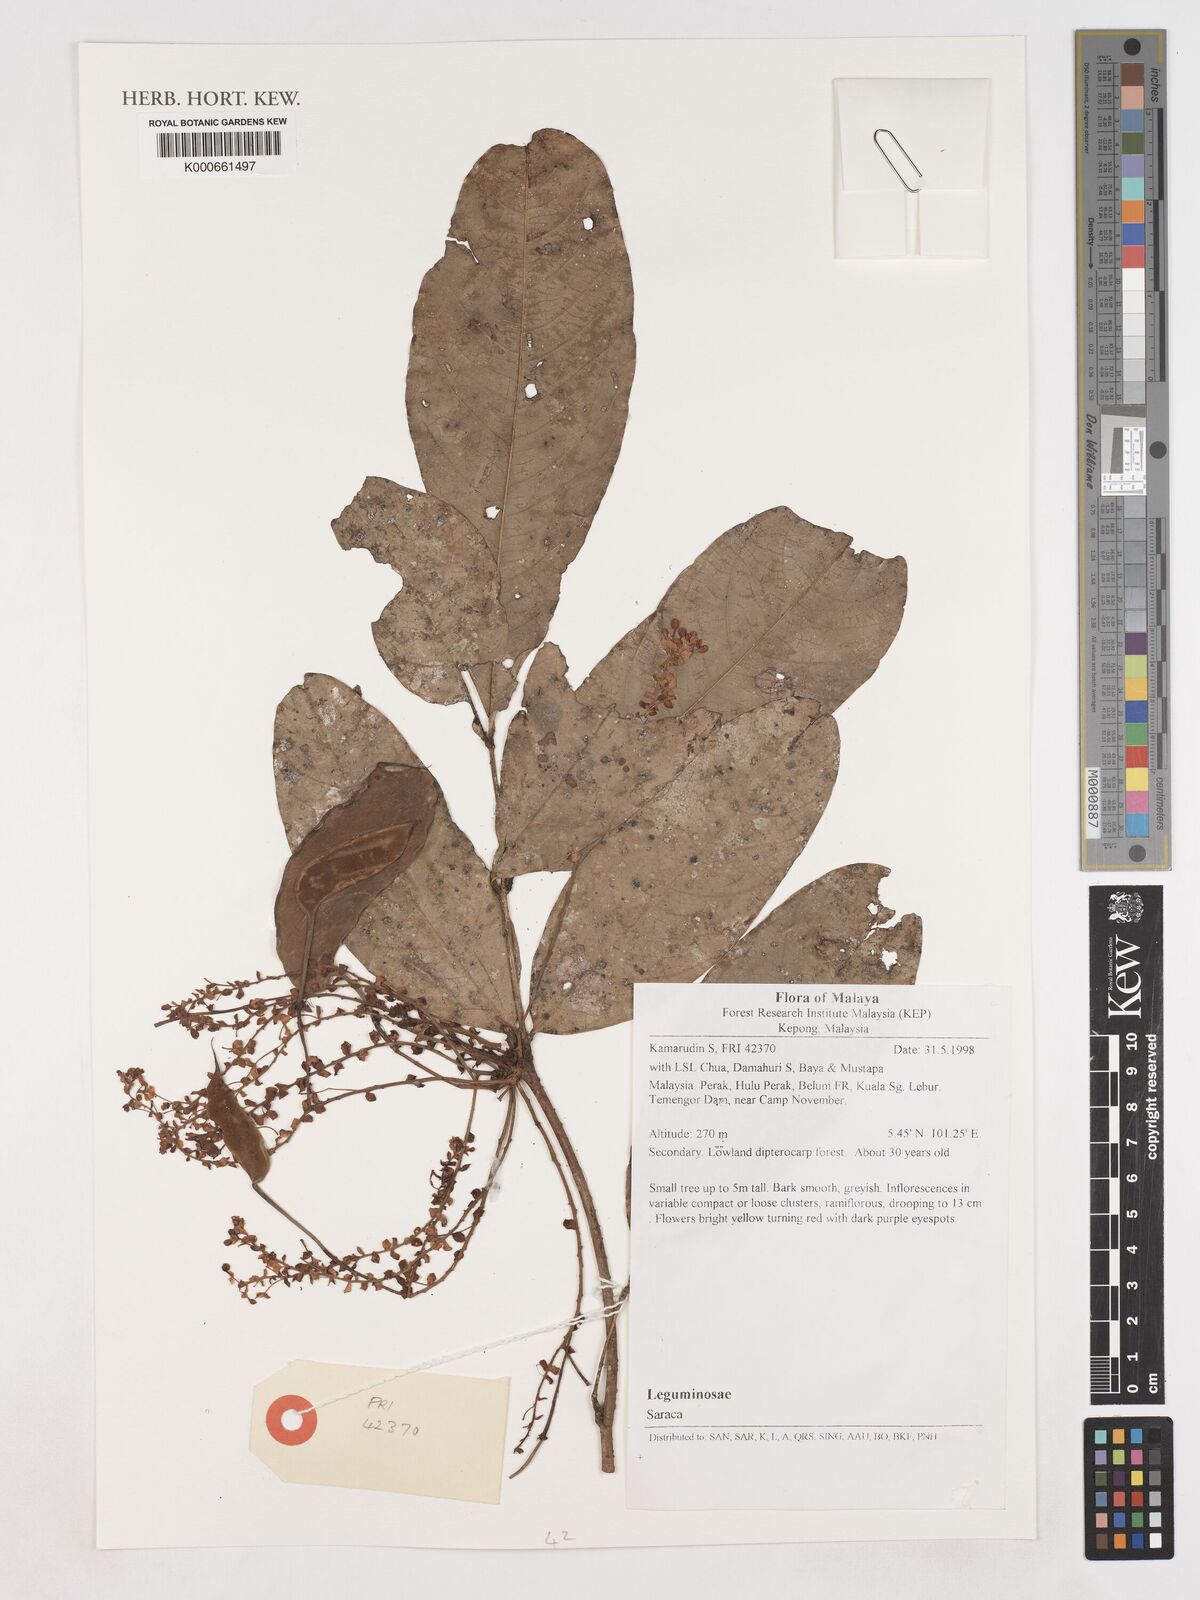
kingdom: Plantae
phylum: Tracheophyta
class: Magnoliopsida
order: Fabales
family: Fabaceae
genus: Saraca
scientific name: Saraca
